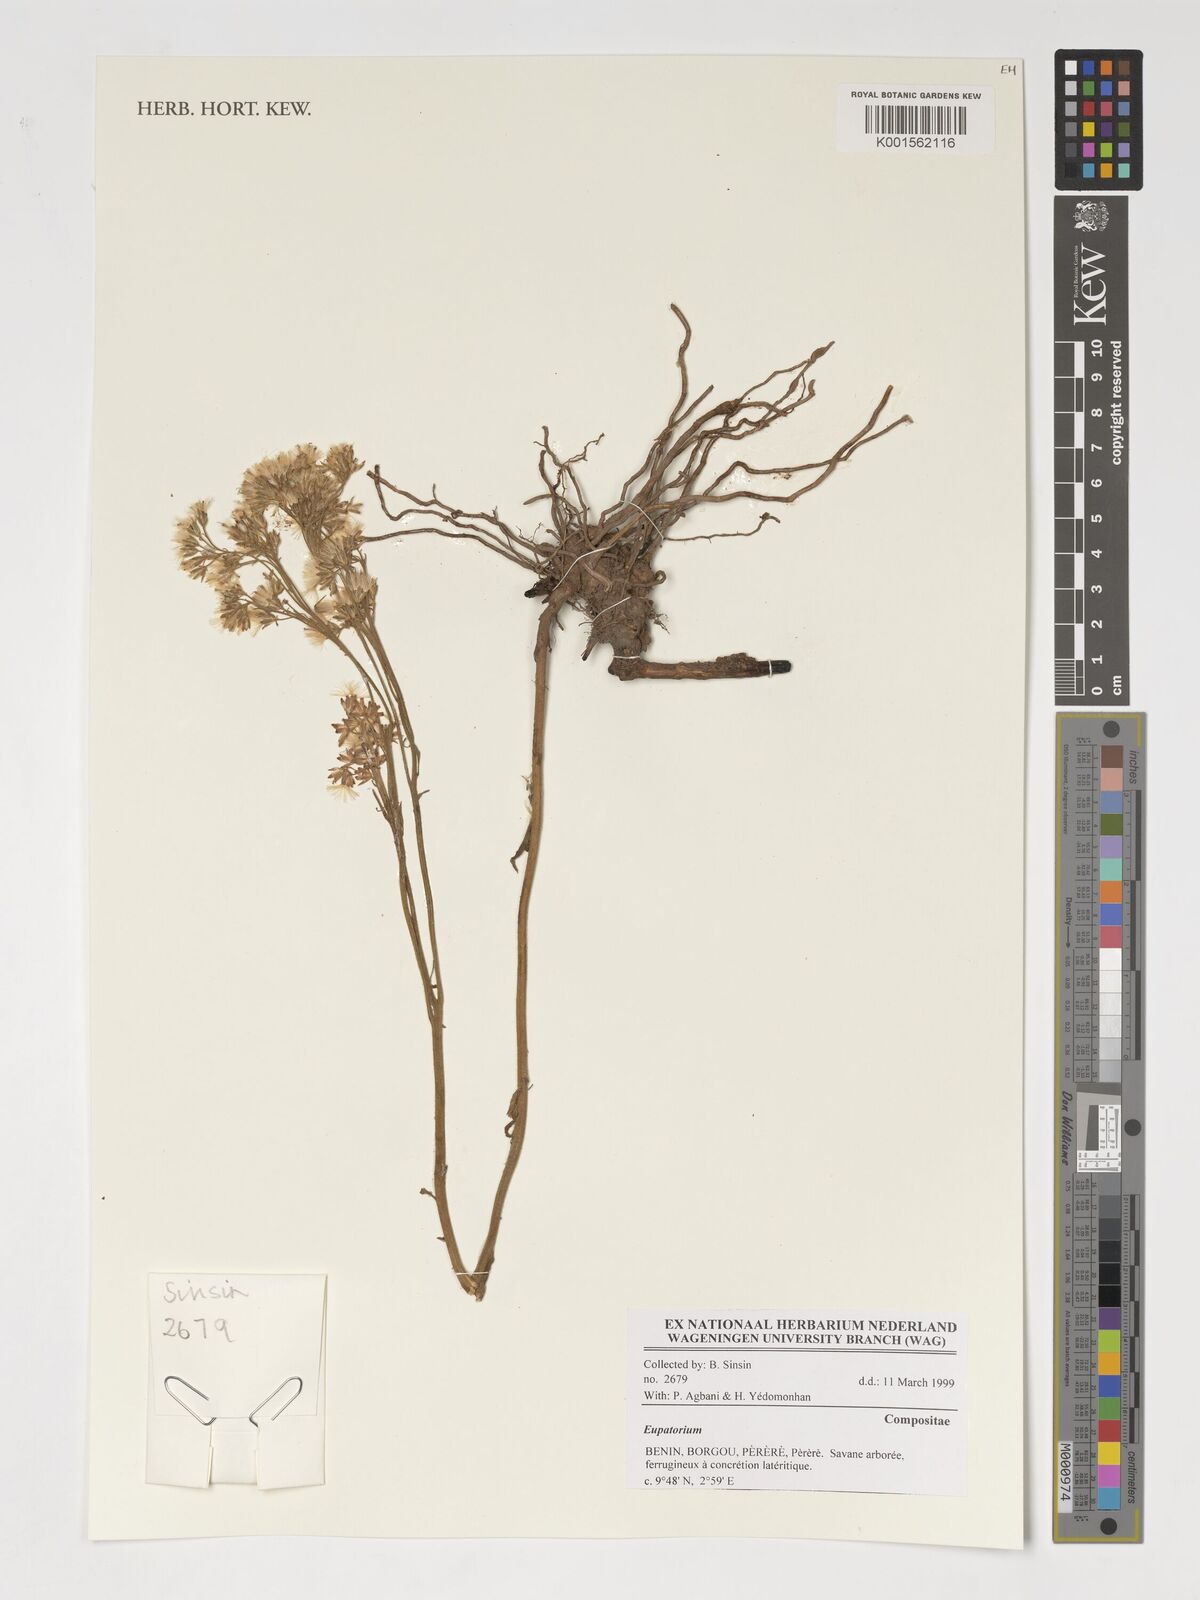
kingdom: Plantae
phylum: Tracheophyta
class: Magnoliopsida
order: Asterales
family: Asteraceae
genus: Eupatorium
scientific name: Eupatorium
